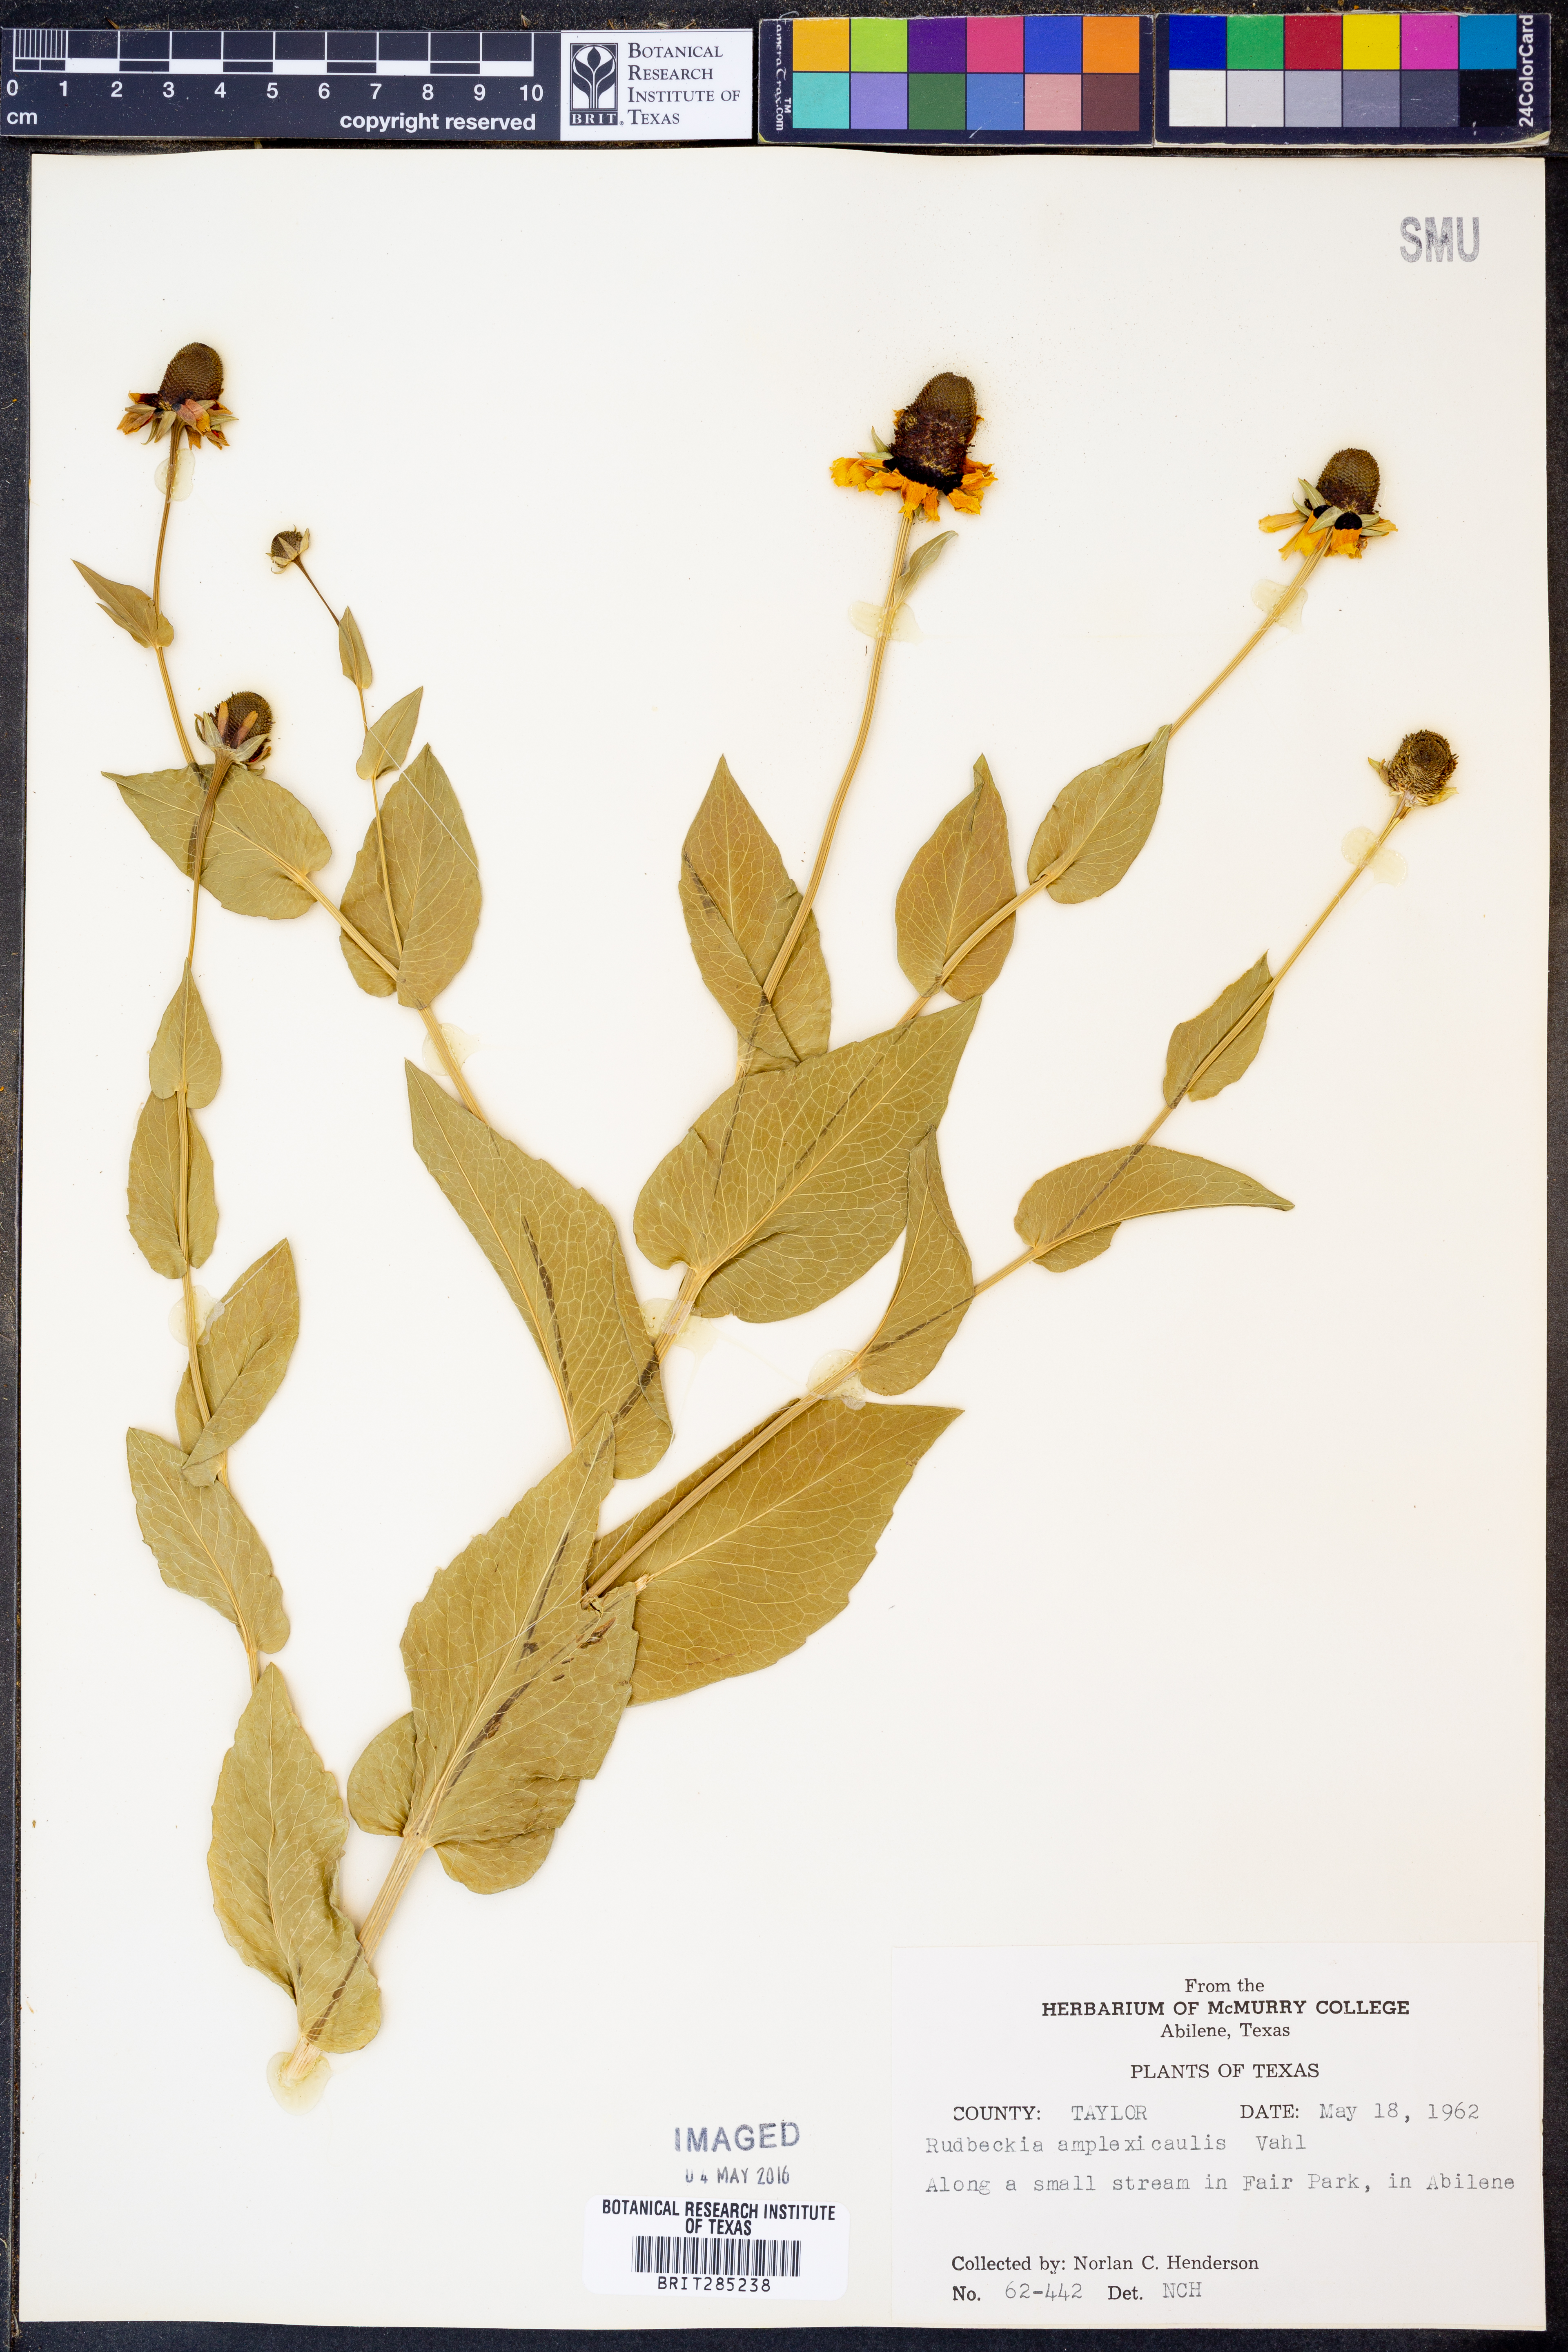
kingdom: Plantae
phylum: Tracheophyta
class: Magnoliopsida
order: Asterales
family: Asteraceae
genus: Rudbeckia
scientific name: Rudbeckia amplexicaulis
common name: Clasping-leaf coneflower
